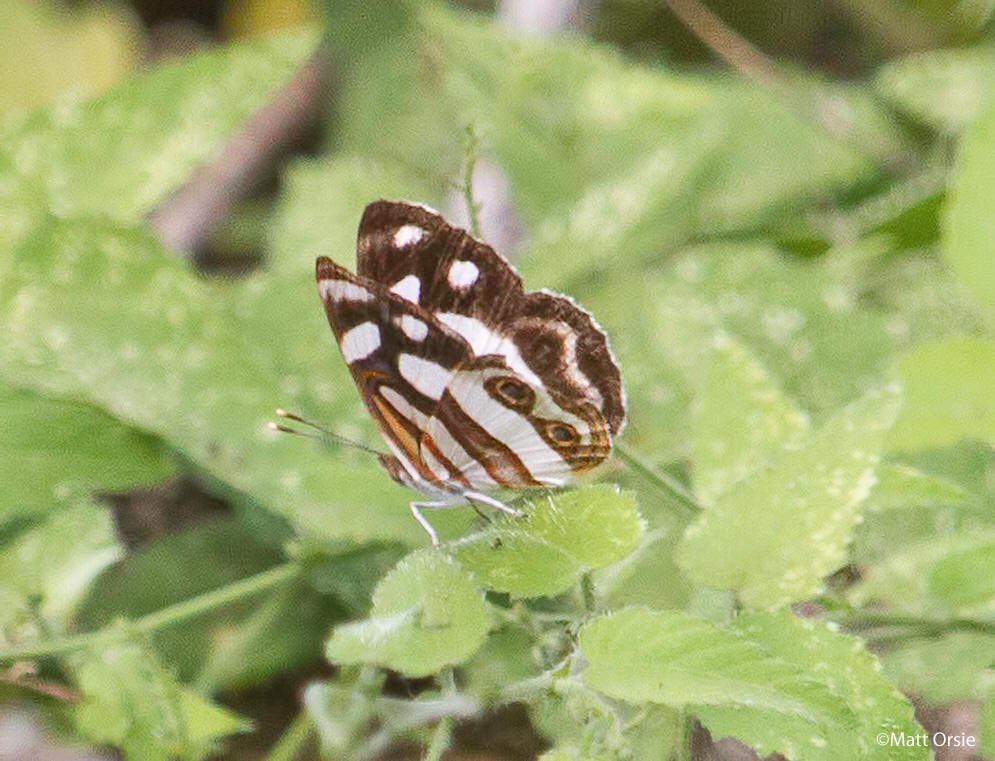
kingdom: Animalia
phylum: Arthropoda
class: Insecta
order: Lepidoptera
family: Nymphalidae
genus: Dynamine
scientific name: Dynamine dyonis
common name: Blue-eyed Sailor
